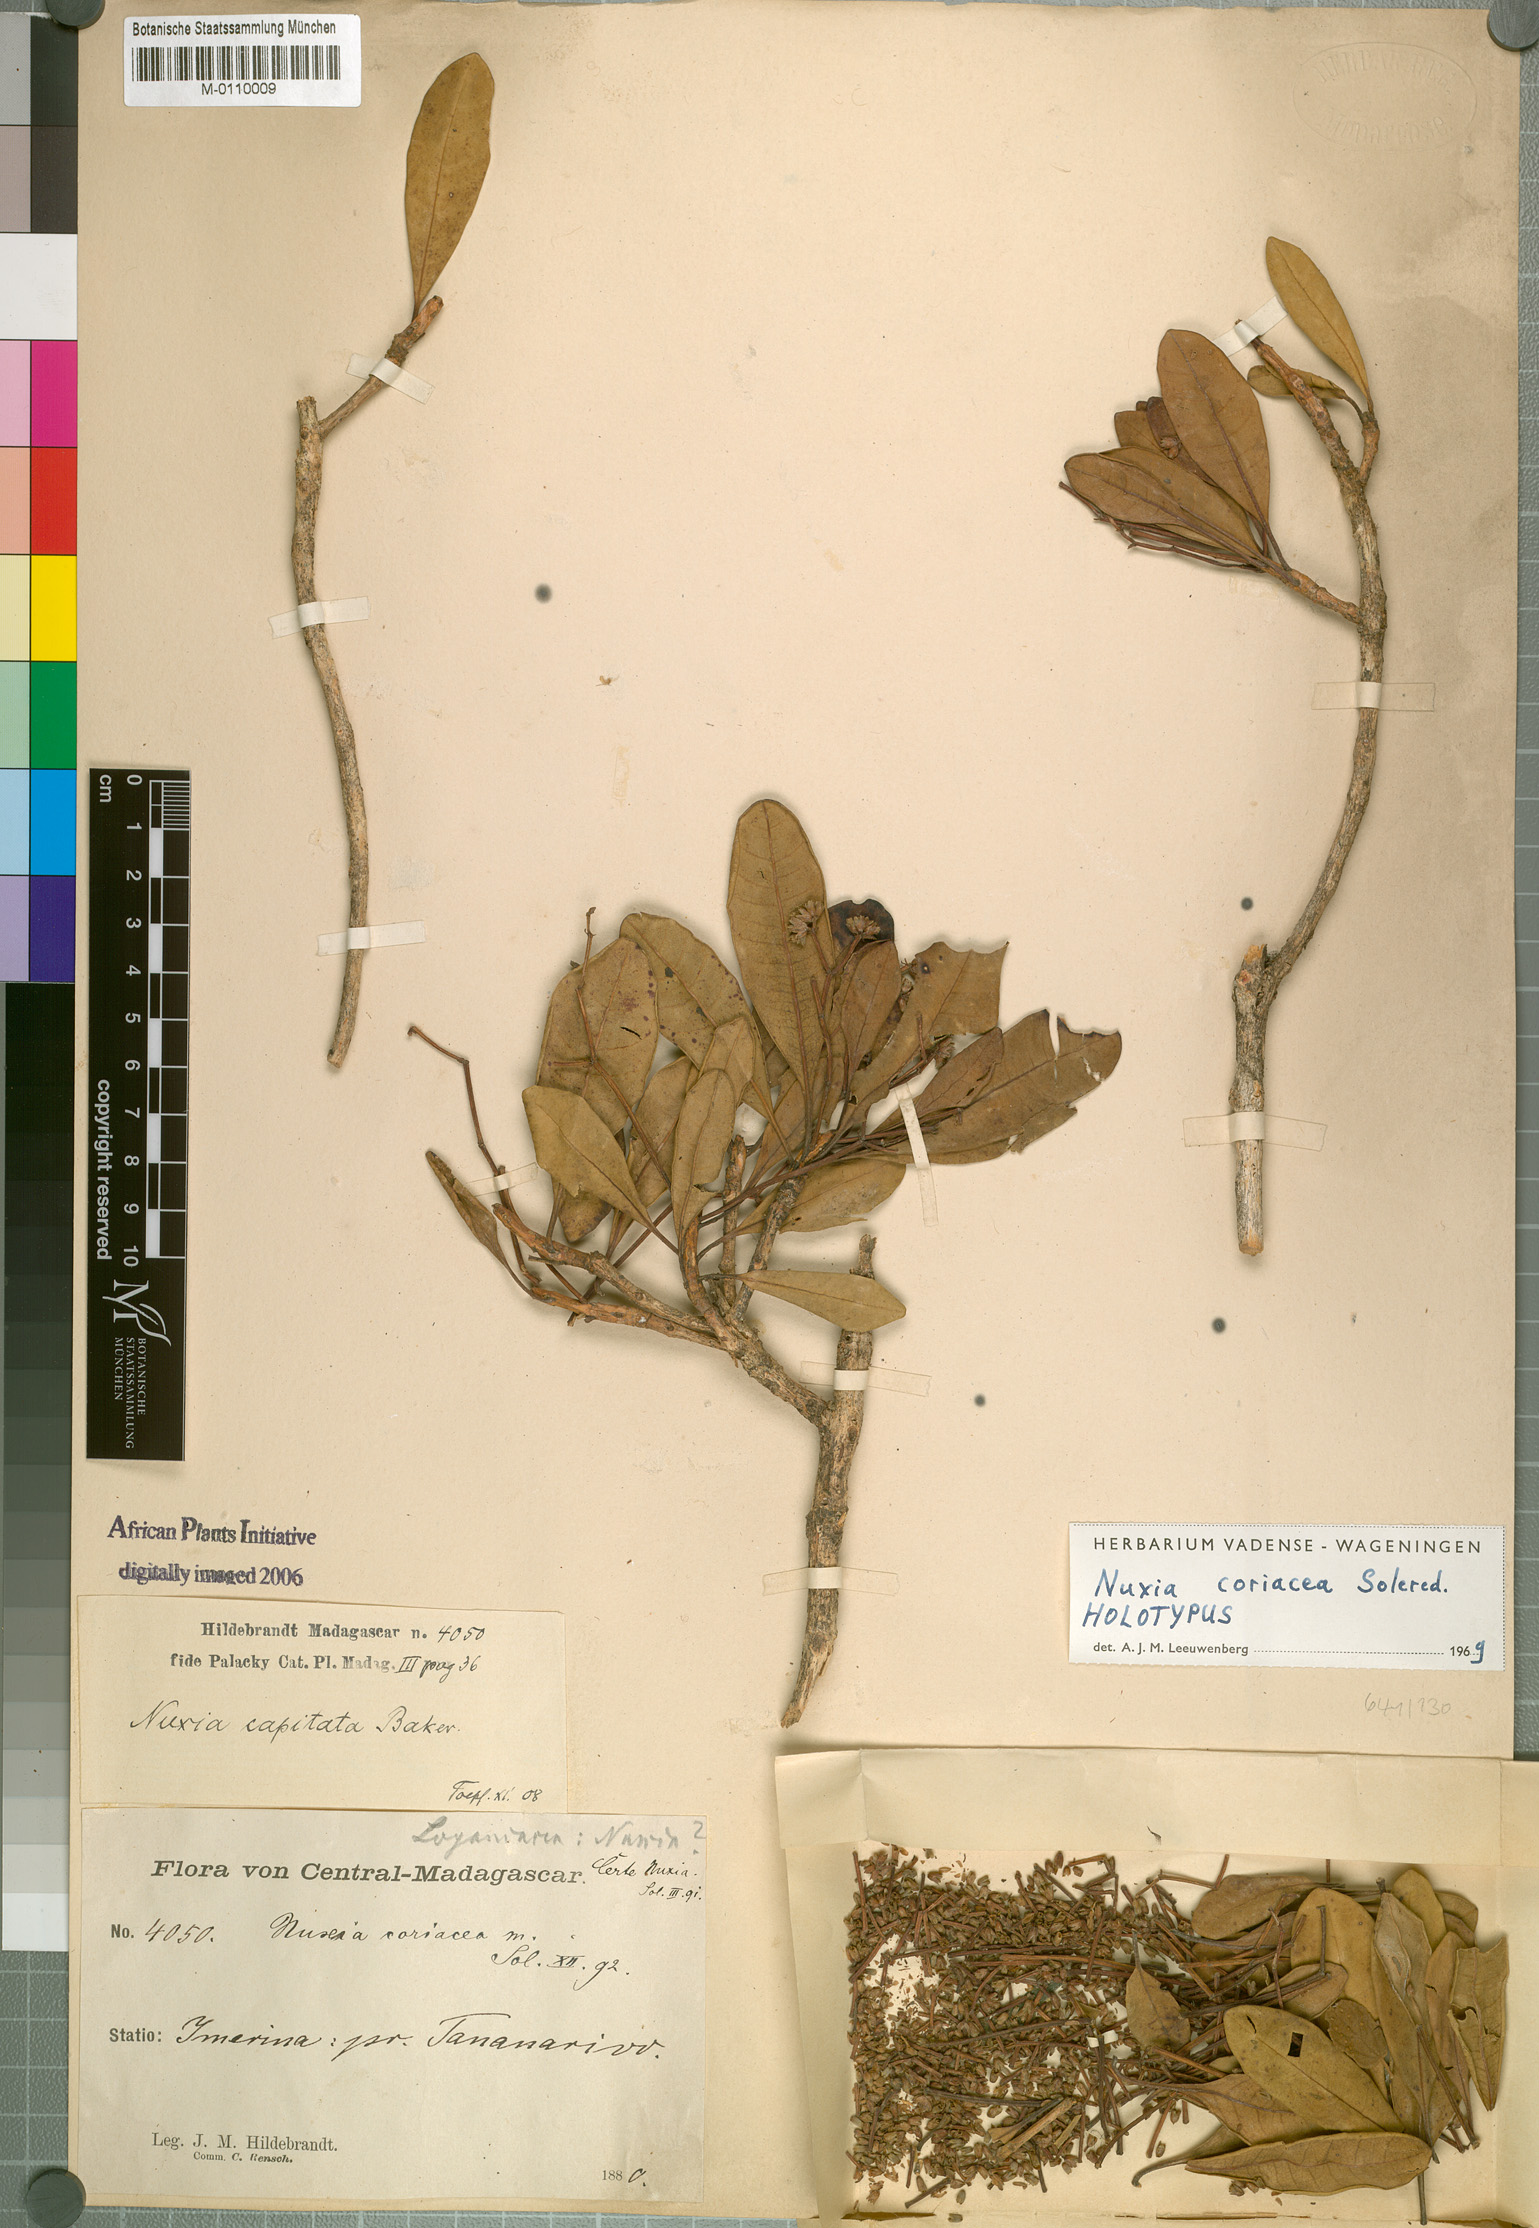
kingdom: Plantae
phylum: Tracheophyta
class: Magnoliopsida
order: Lamiales
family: Stilbaceae
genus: Nuxia
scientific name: Nuxia coriacea
